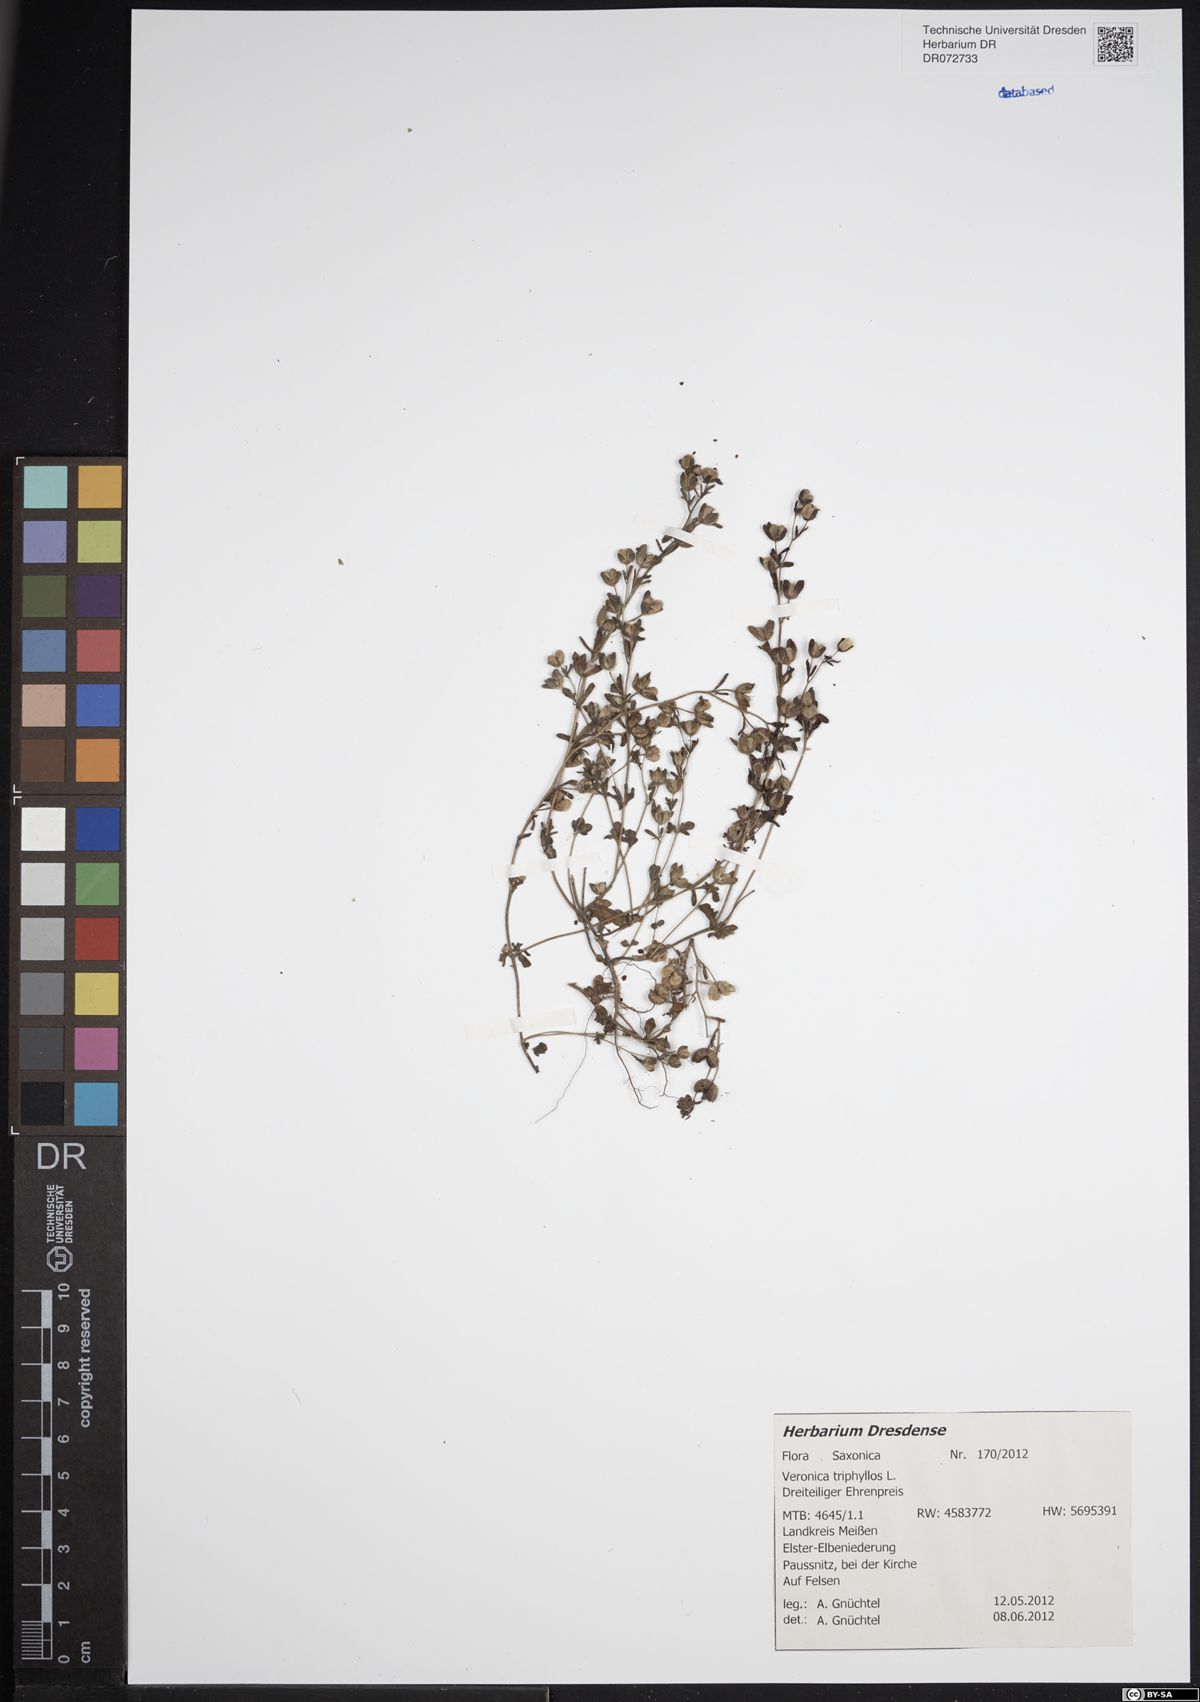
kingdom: Plantae
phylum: Tracheophyta
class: Magnoliopsida
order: Lamiales
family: Plantaginaceae
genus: Veronica
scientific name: Veronica triphyllos
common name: Fingered speedwell
